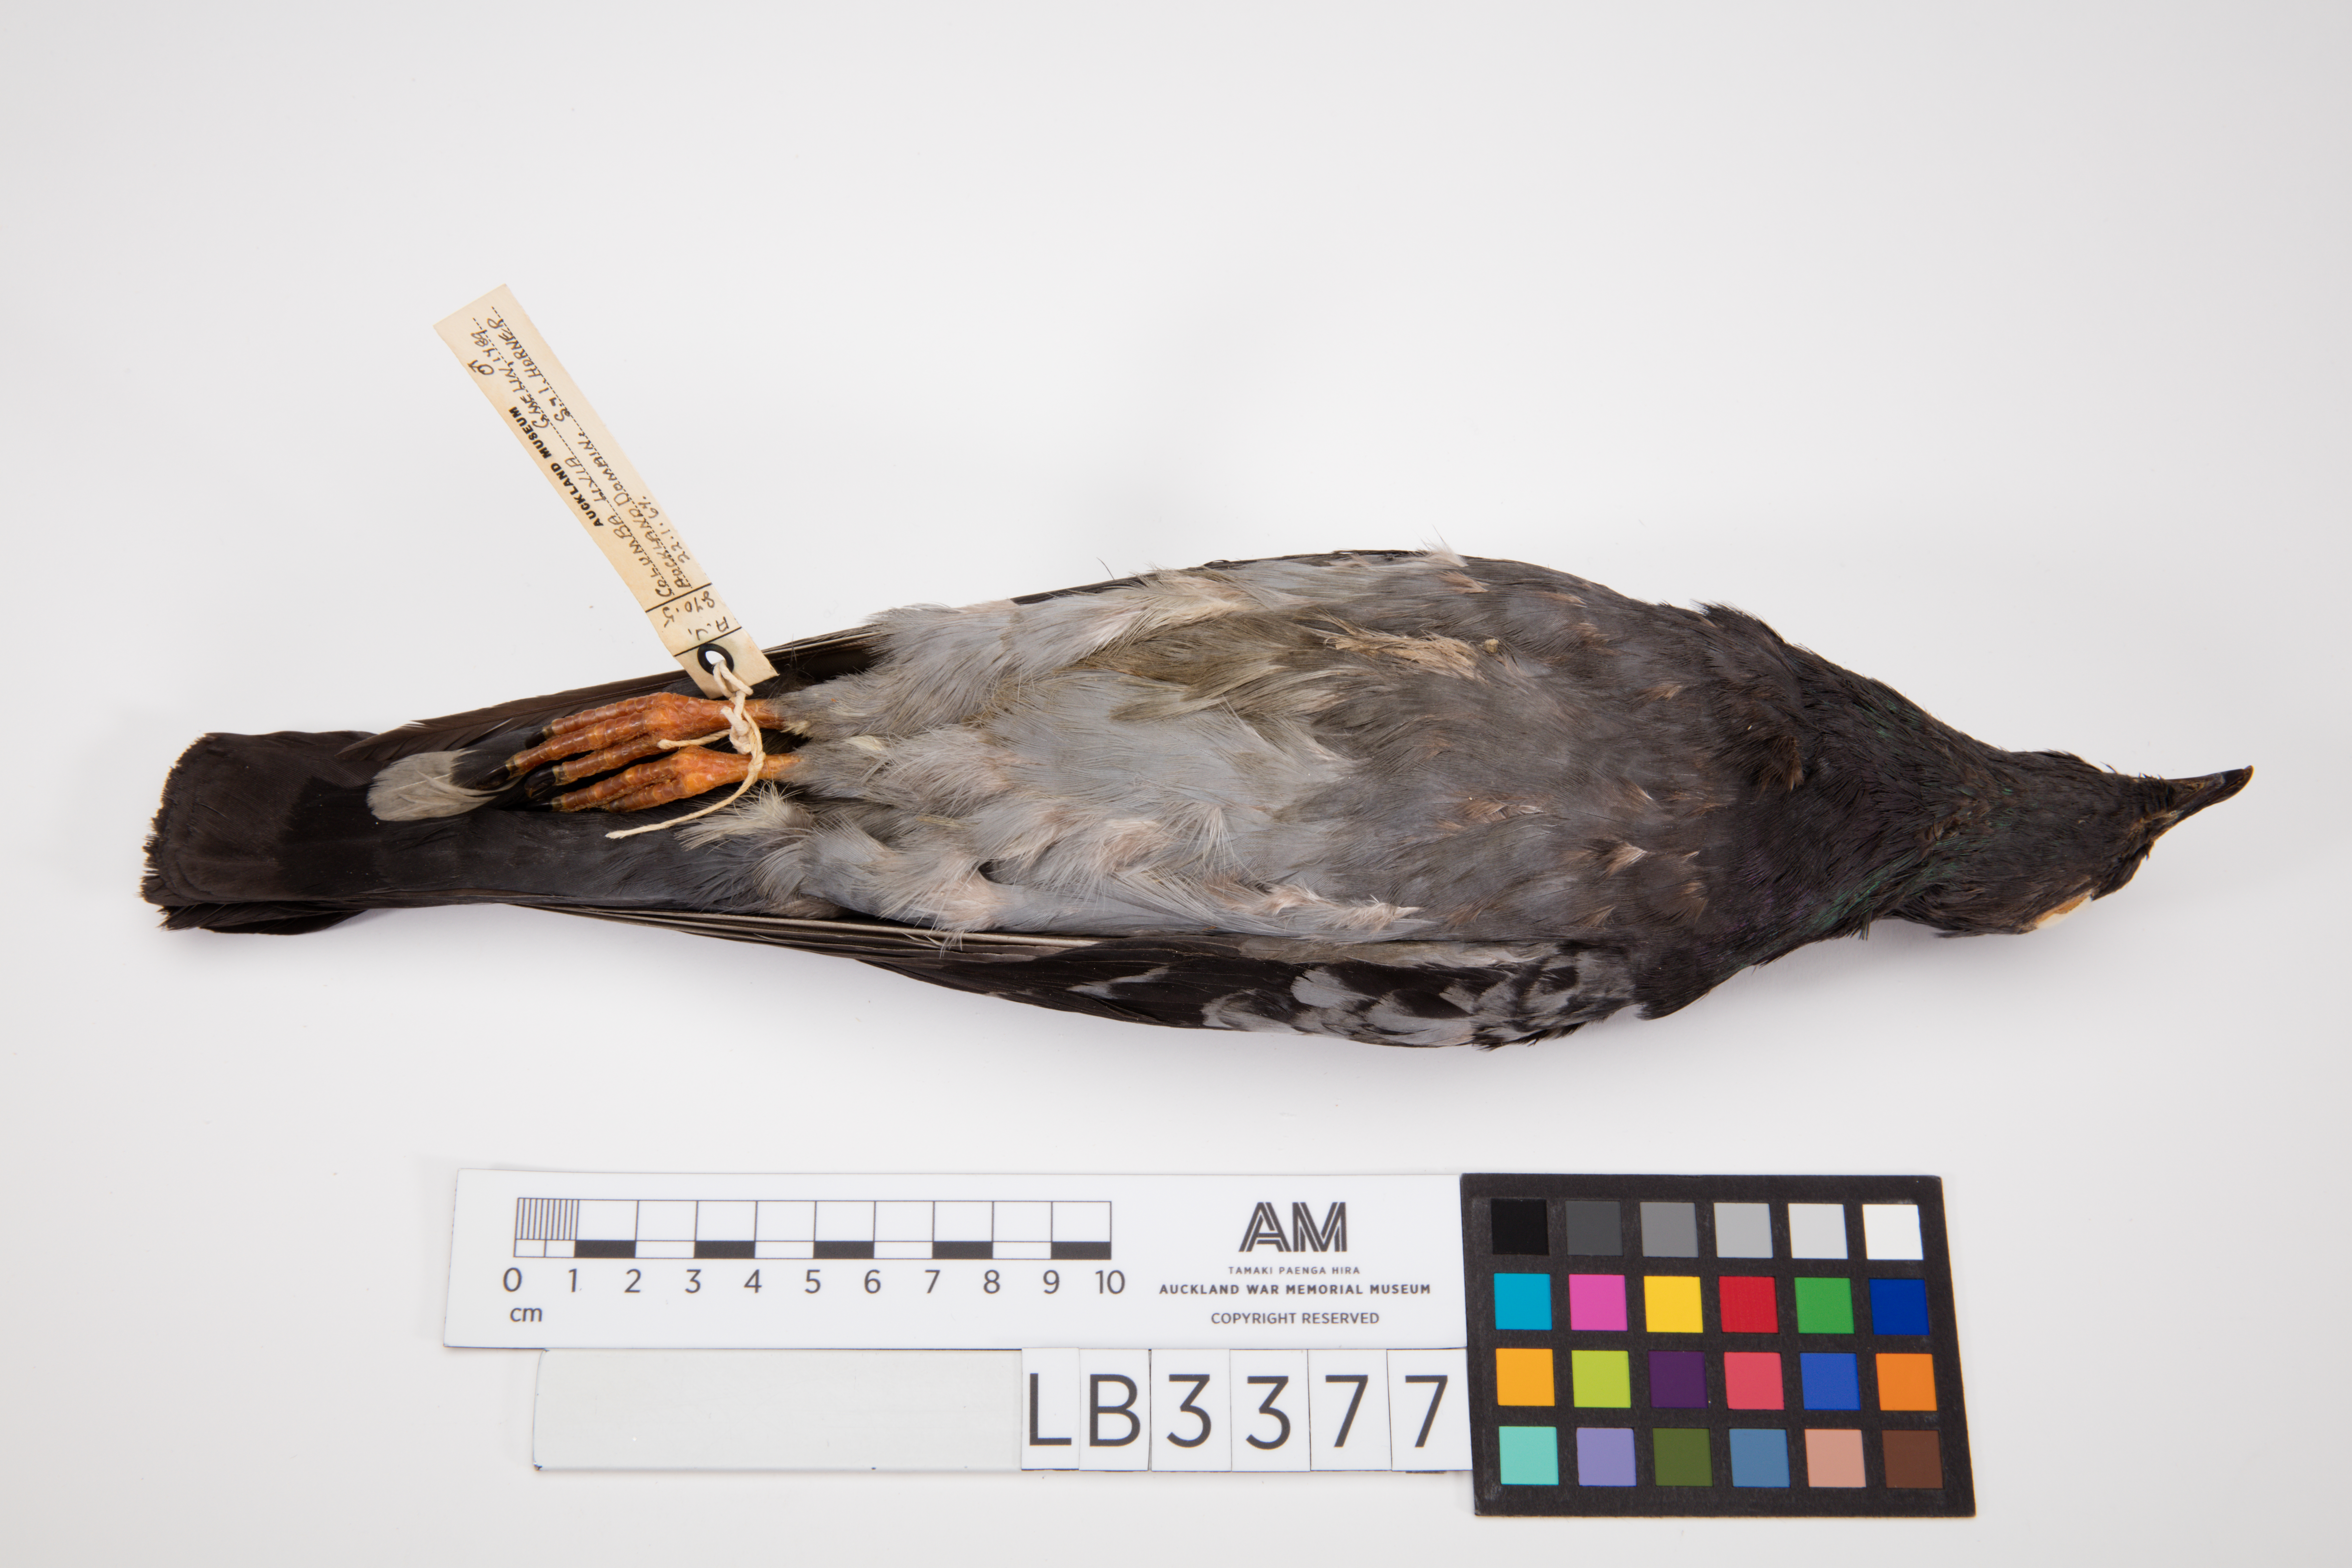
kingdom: Animalia
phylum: Chordata
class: Aves
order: Columbiformes
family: Columbidae
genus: Columba
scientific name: Columba livia
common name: Rock pigeon
